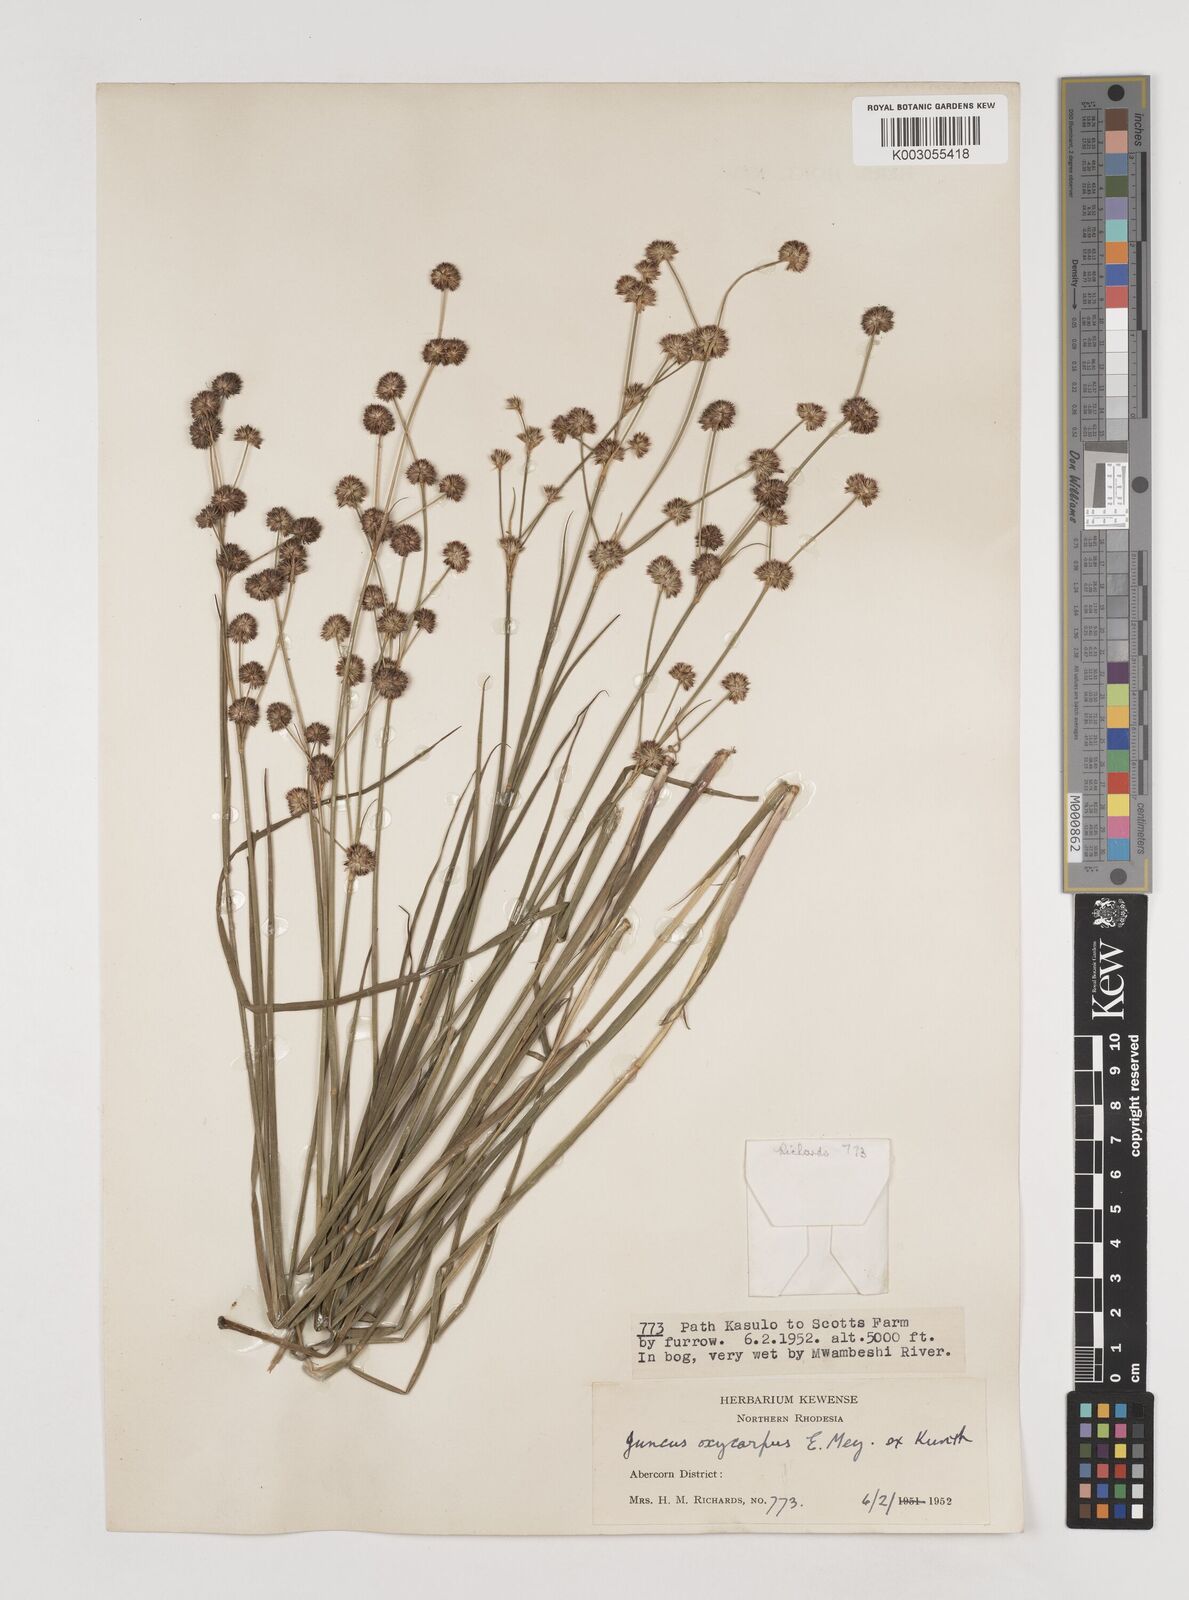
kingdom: Plantae
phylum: Tracheophyta
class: Liliopsida
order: Poales
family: Juncaceae
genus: Juncus
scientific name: Juncus oxycarpus
